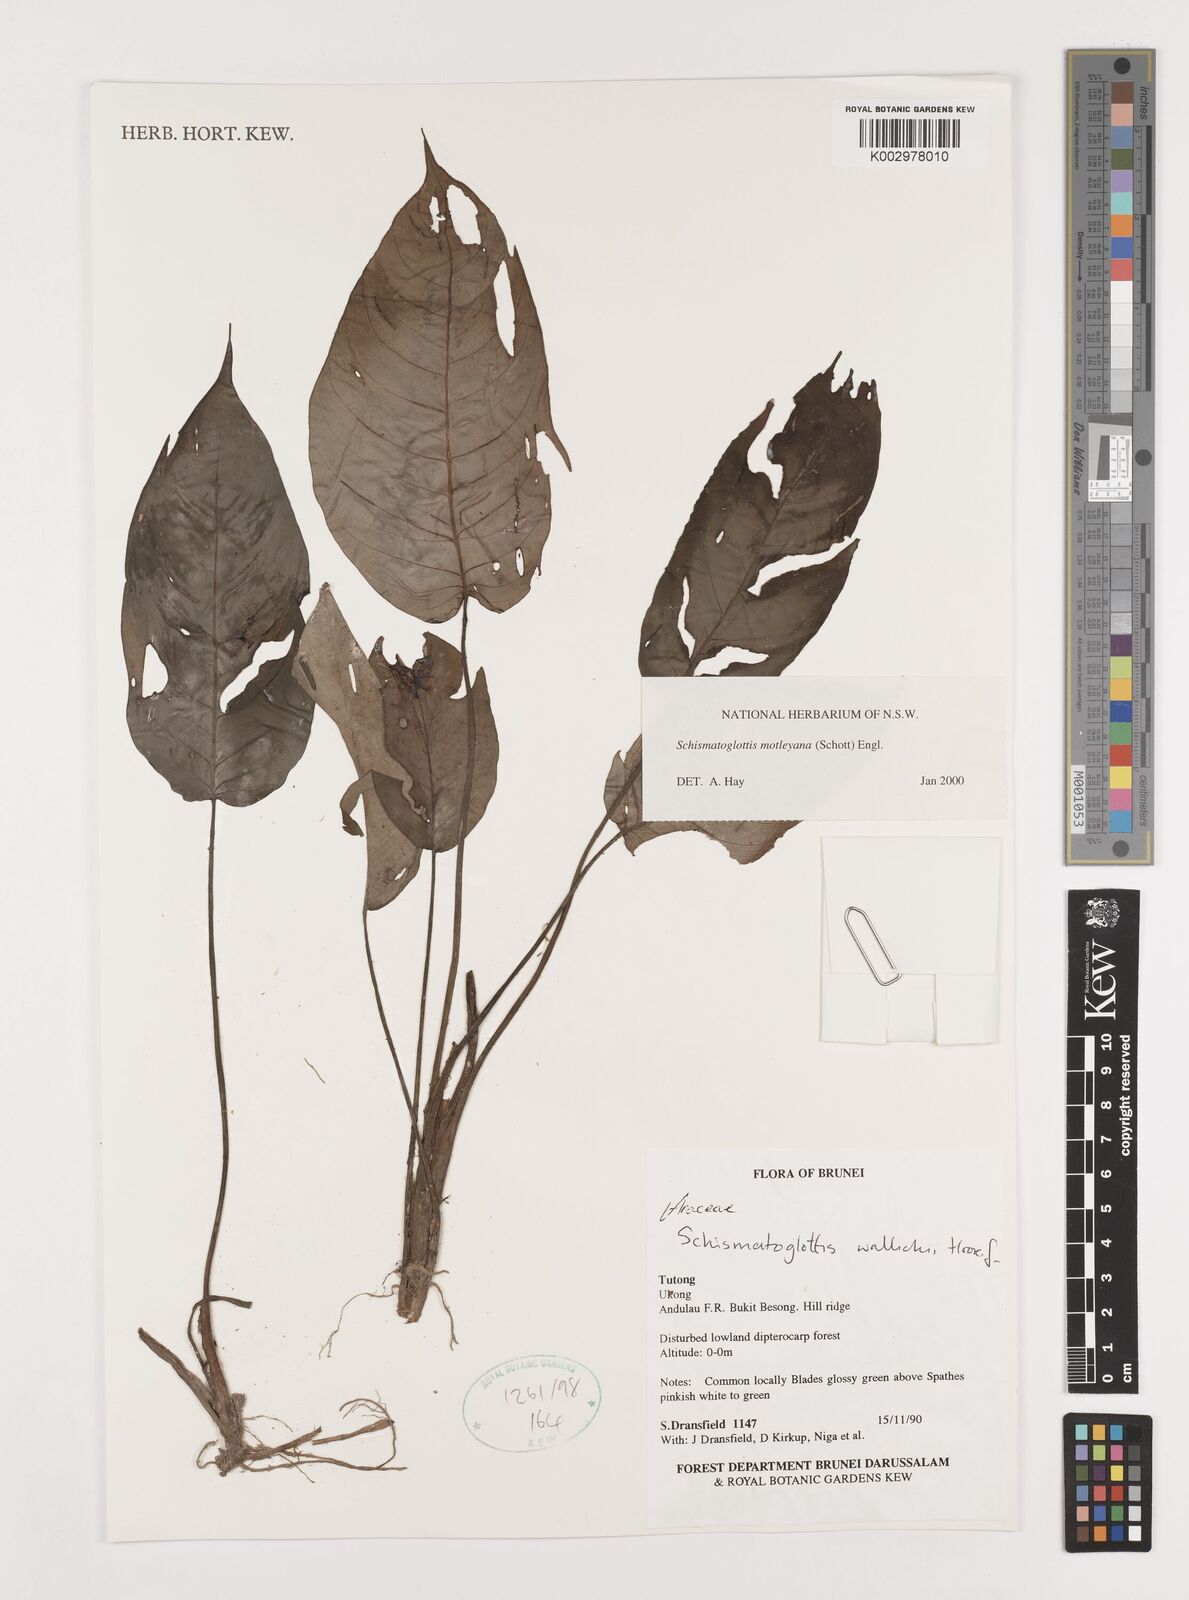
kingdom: Plantae
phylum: Tracheophyta
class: Liliopsida
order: Alismatales
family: Araceae
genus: Schismatoglottis
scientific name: Schismatoglottis motleyana
